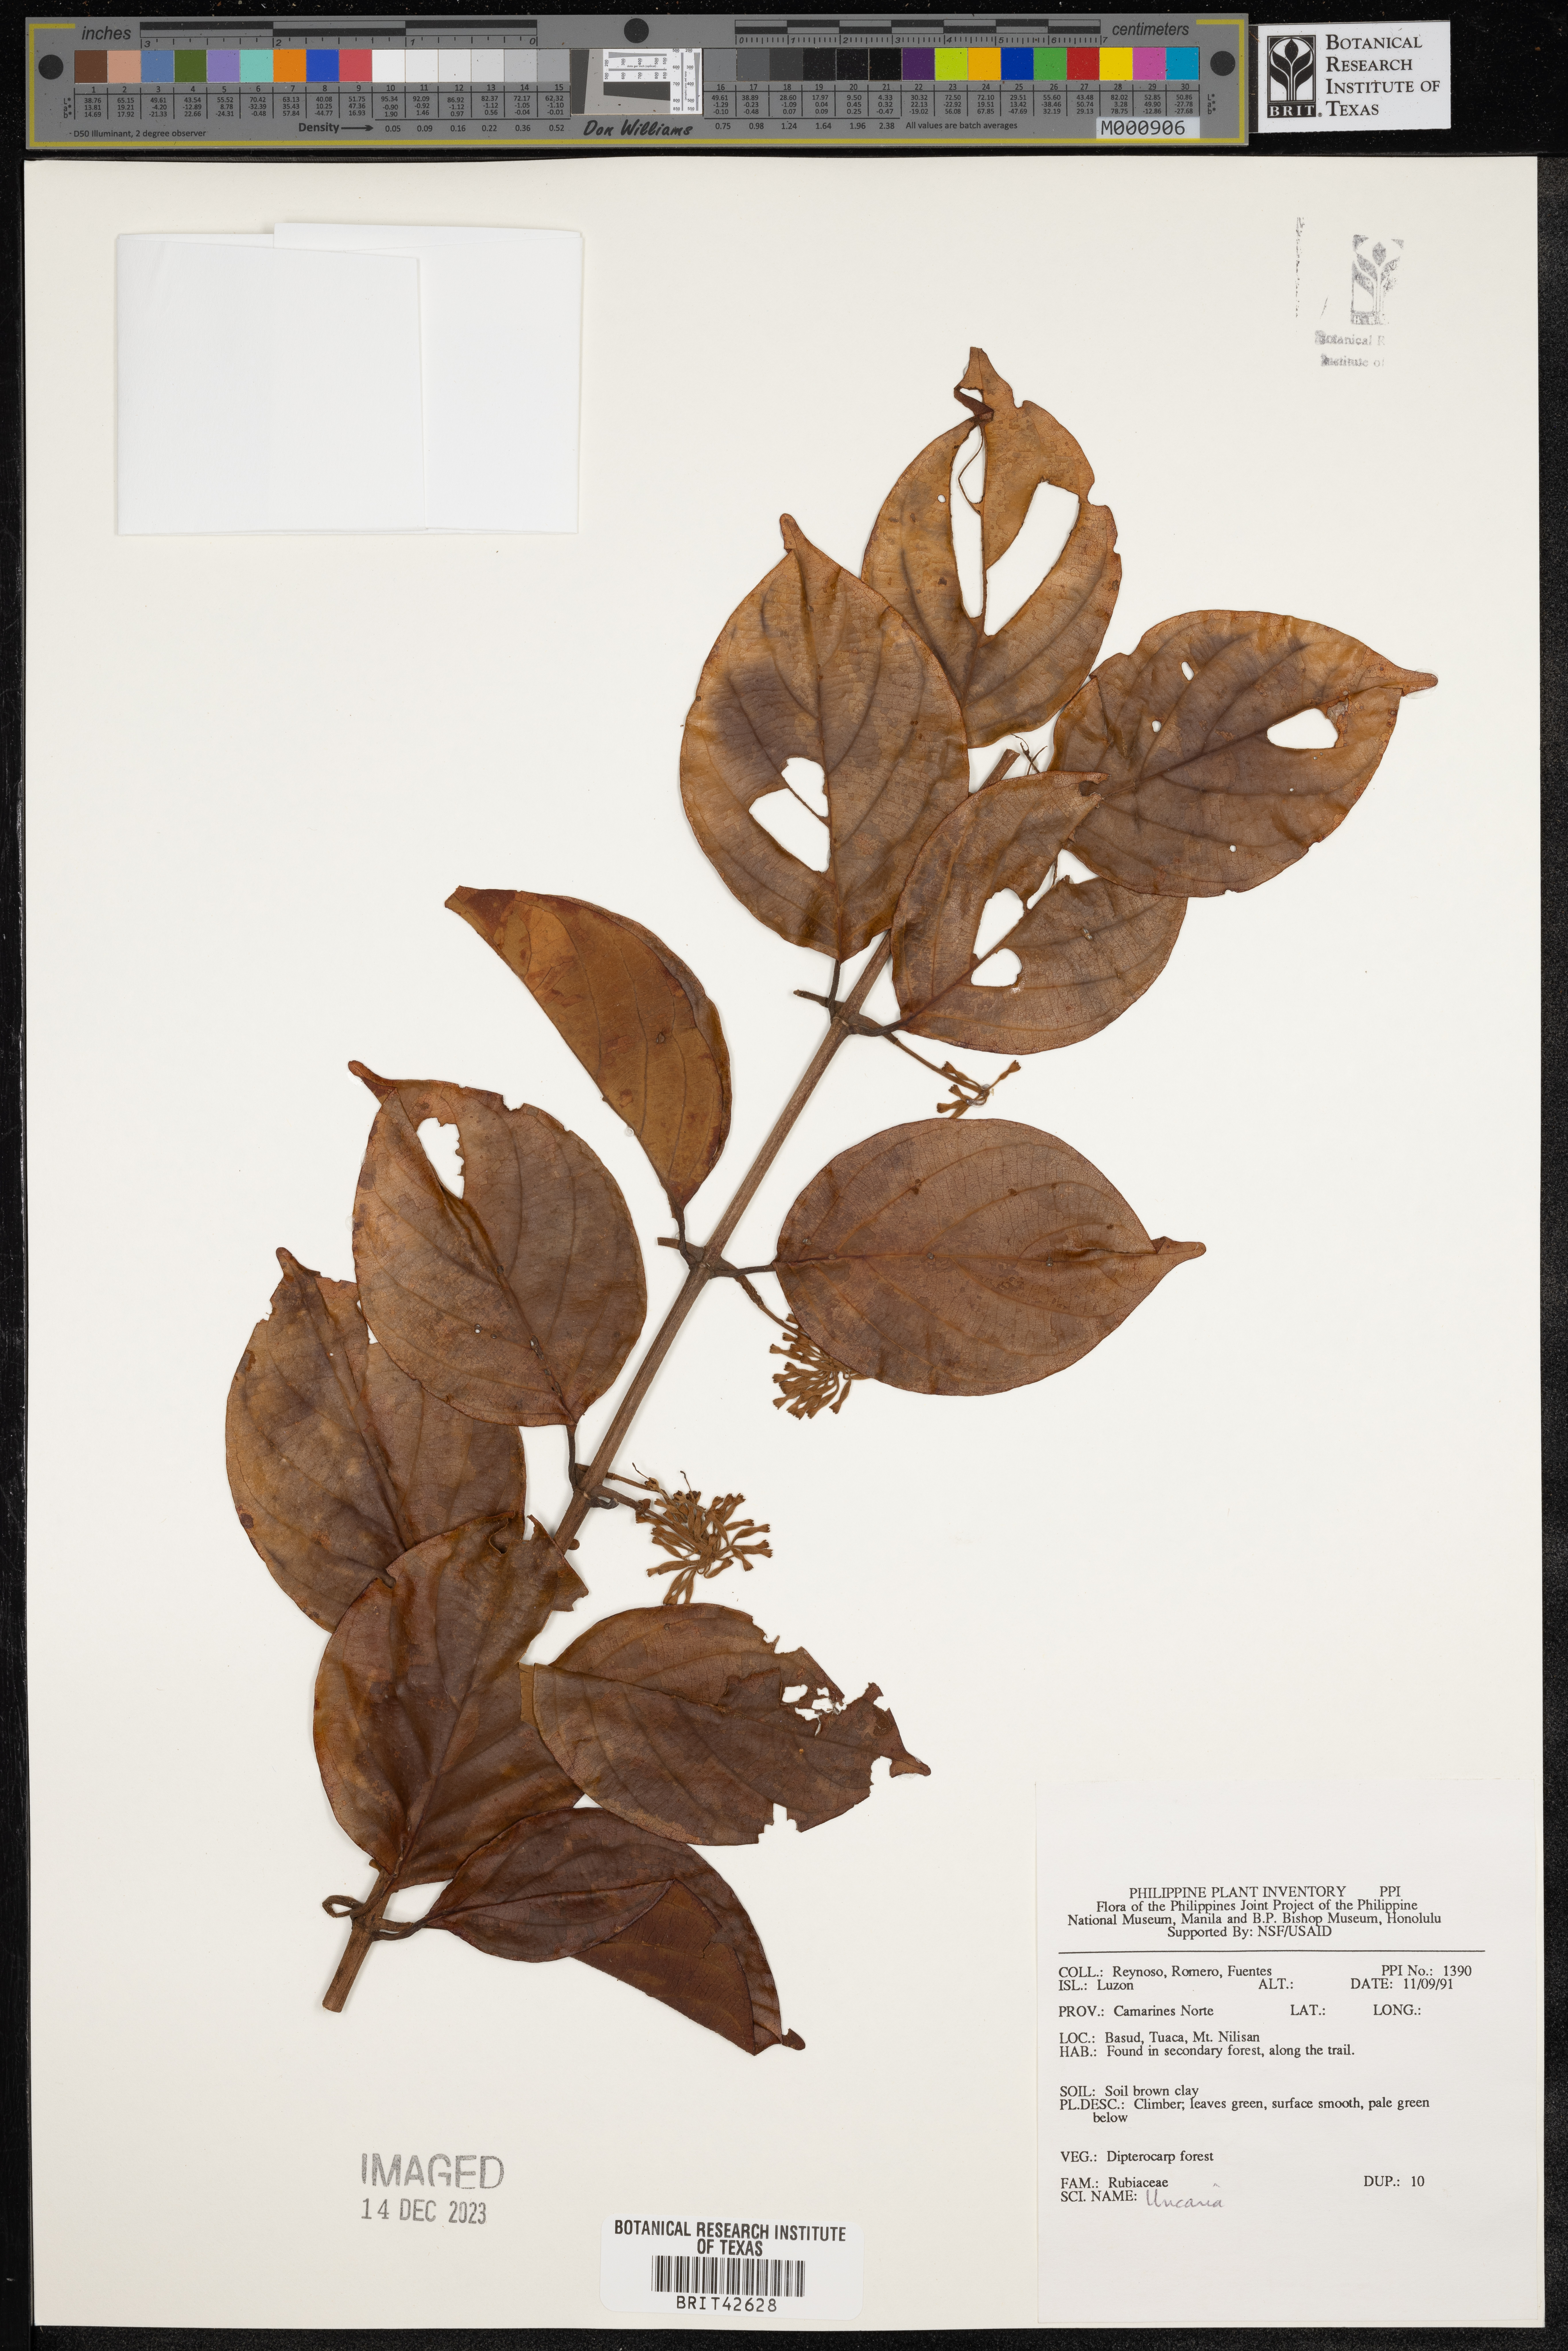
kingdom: Plantae
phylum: Tracheophyta
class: Magnoliopsida
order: Gentianales
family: Rubiaceae
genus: Uncaria
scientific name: Uncaria
